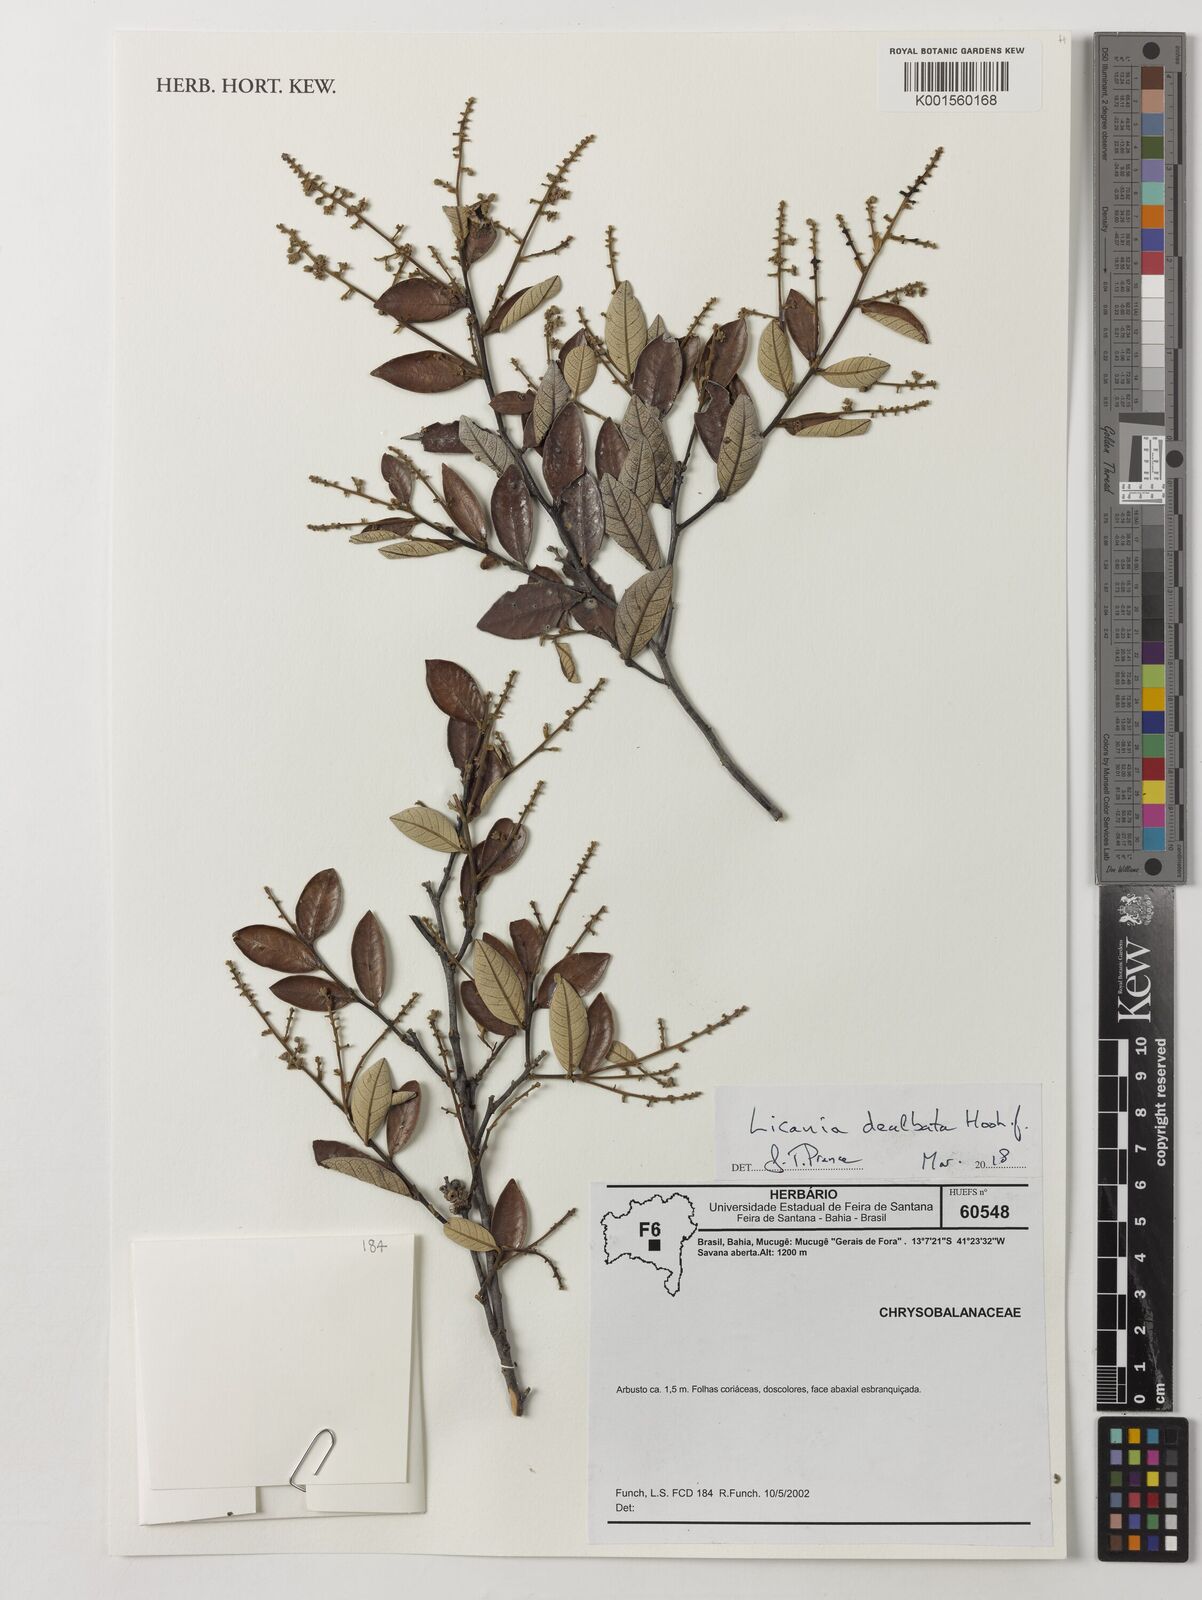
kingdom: Plantae
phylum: Tracheophyta
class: Magnoliopsida
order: Malpighiales
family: Chrysobalanaceae
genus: Licania
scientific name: Licania dealbata
